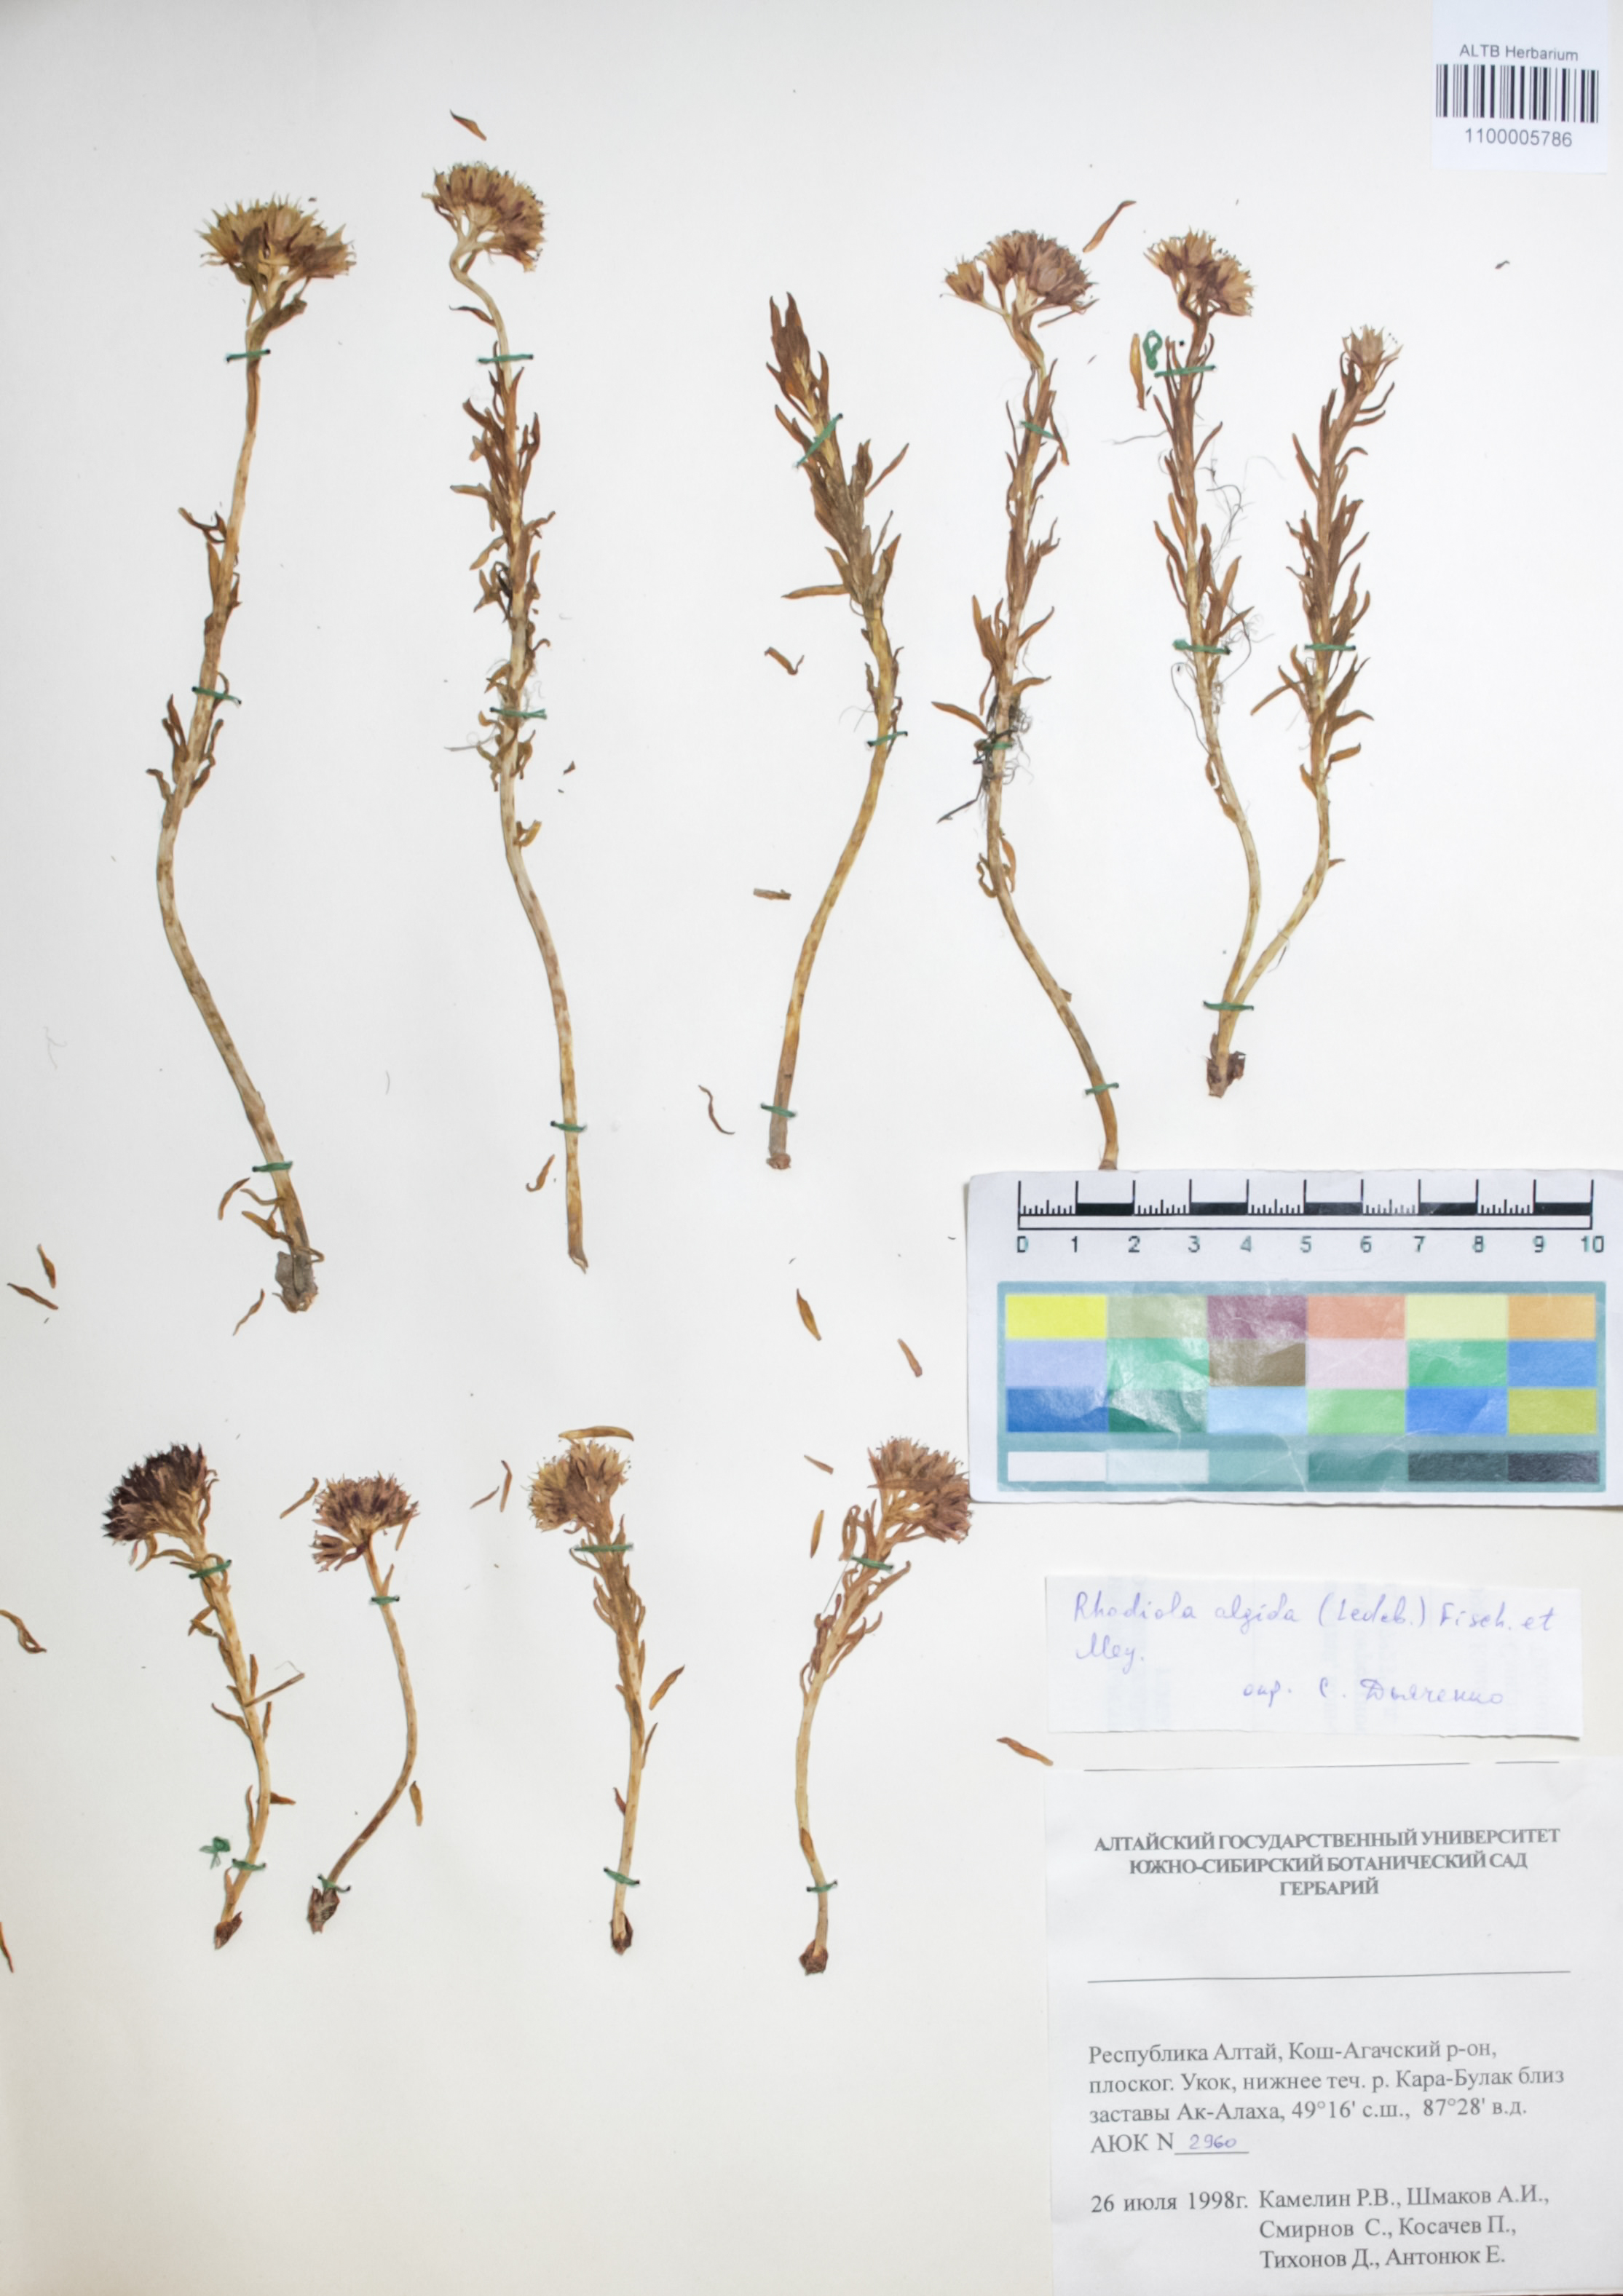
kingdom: Plantae
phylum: Tracheophyta
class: Magnoliopsida
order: Saxifragales
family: Crassulaceae
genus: Rhodiola
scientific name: Rhodiola algida
